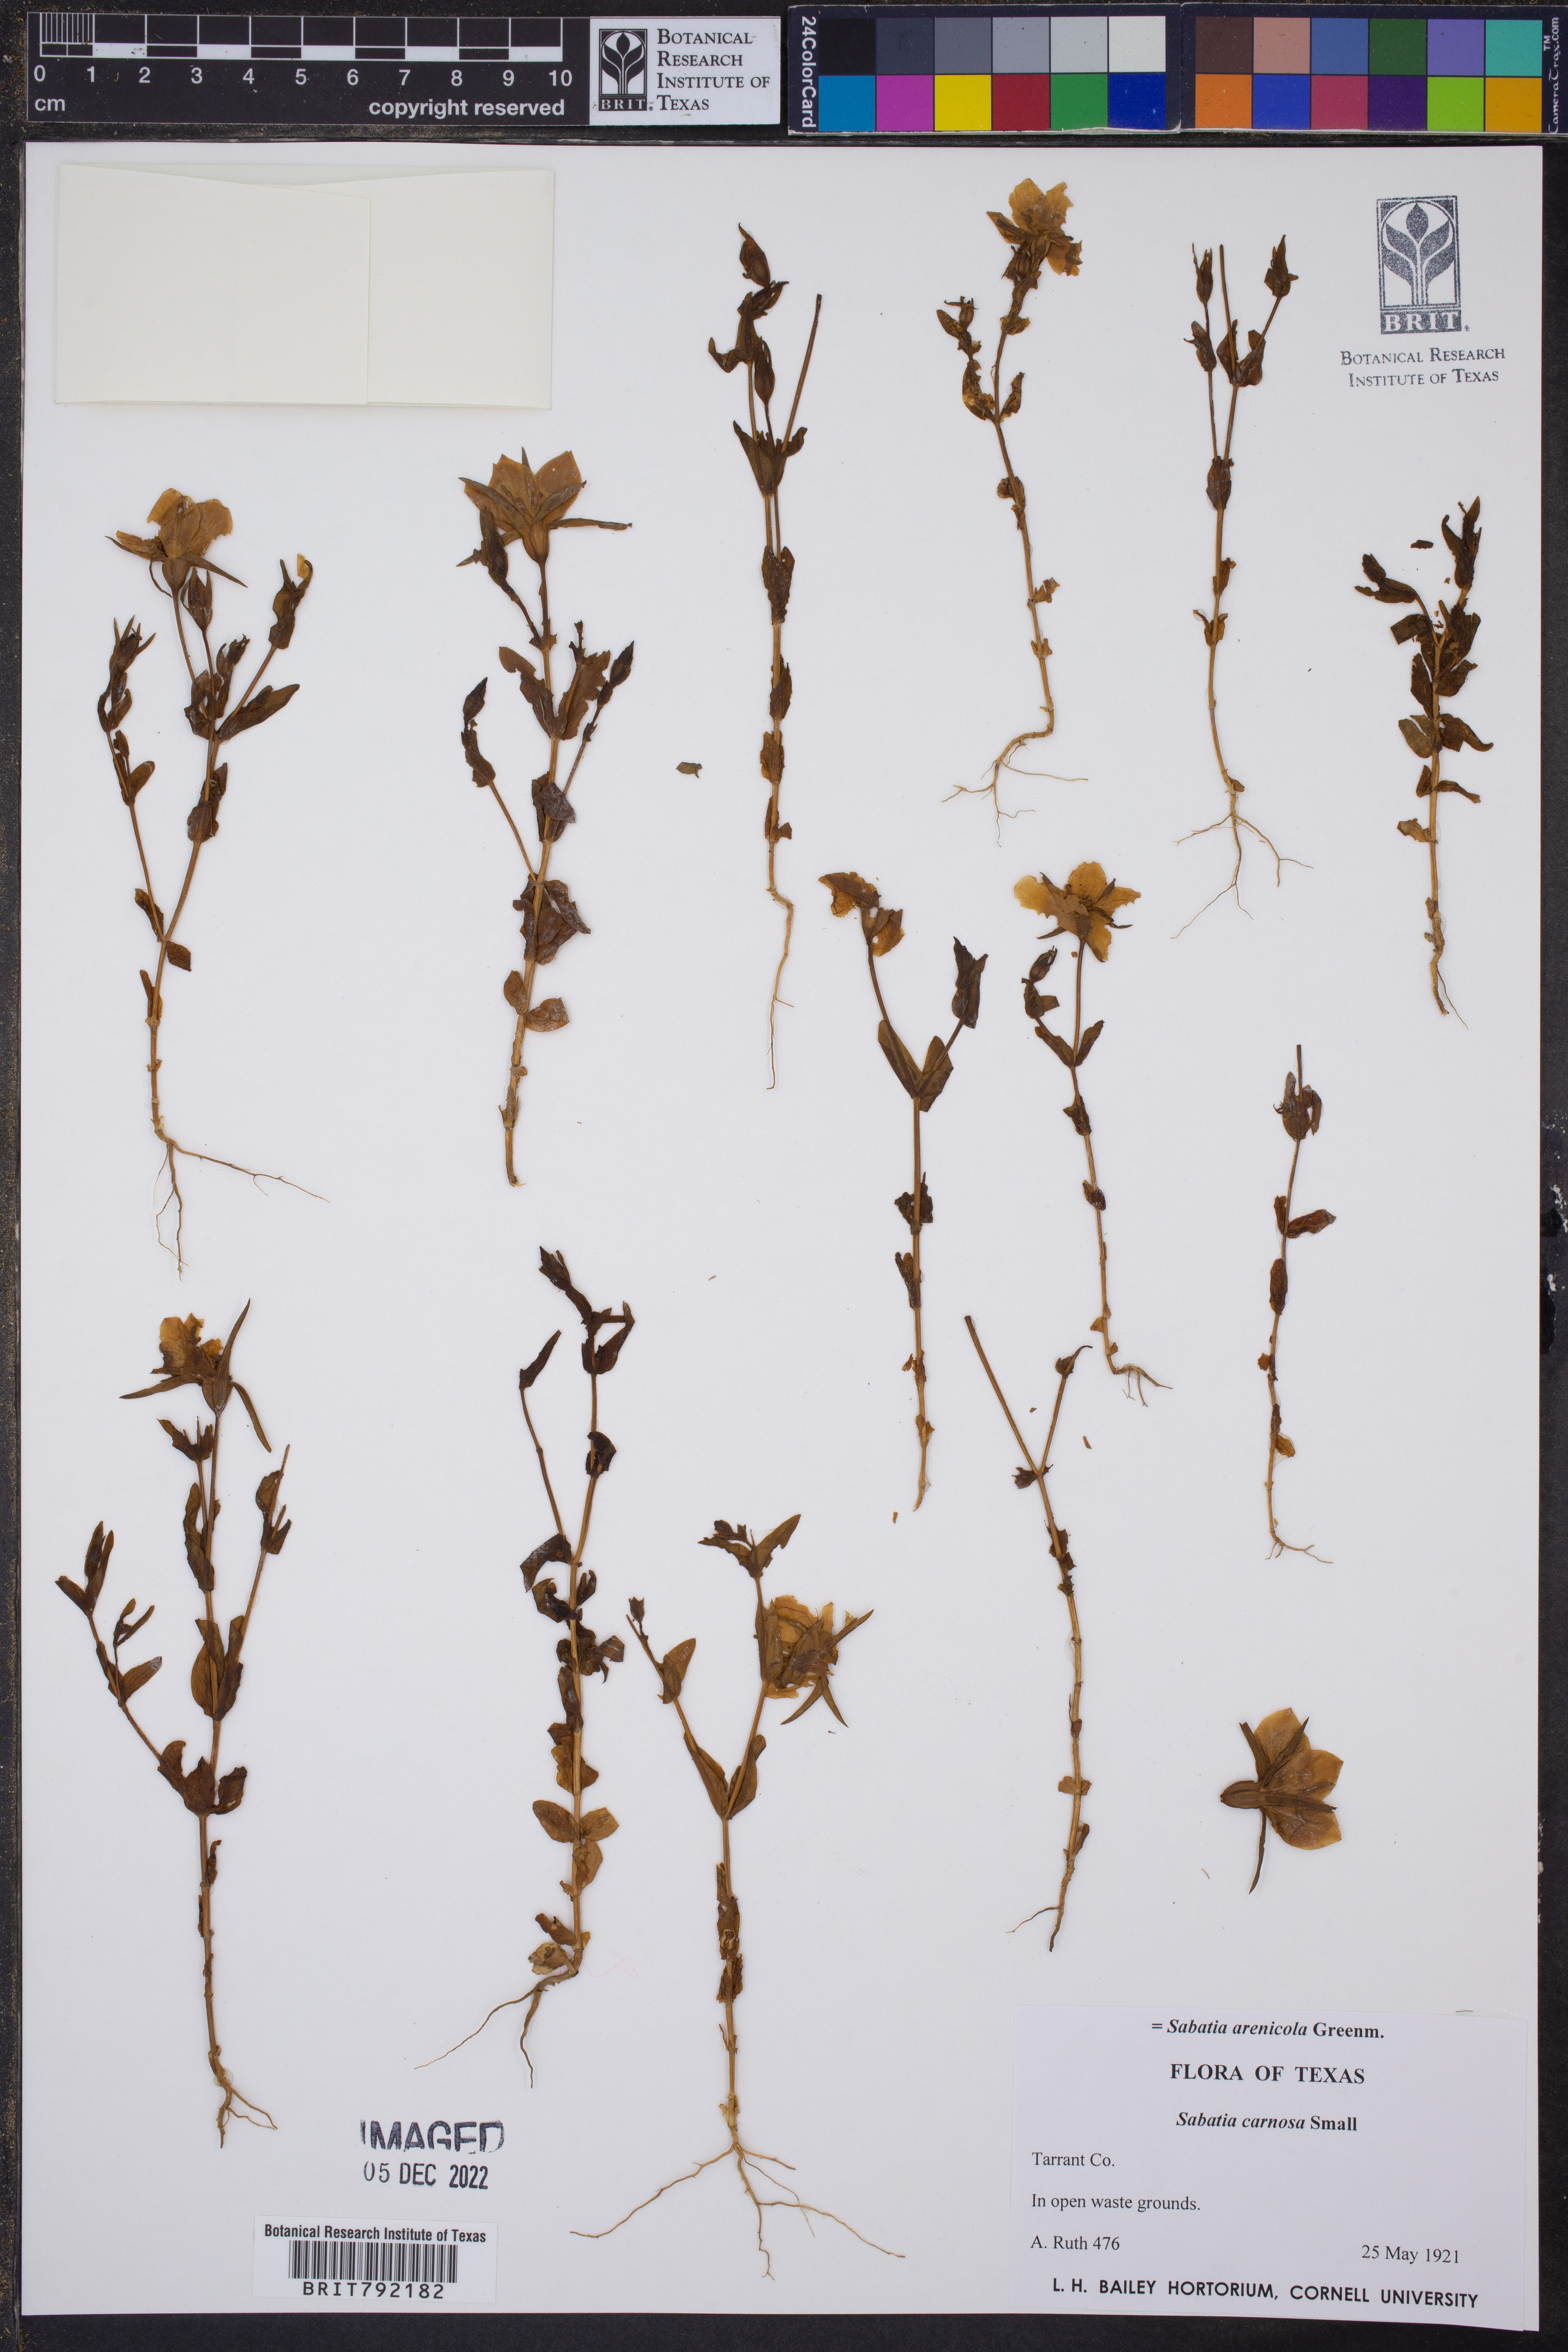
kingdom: Plantae
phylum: Tracheophyta
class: Magnoliopsida
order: Gentianales
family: Gentianaceae
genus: Sabatia
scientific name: Sabatia arenicola
